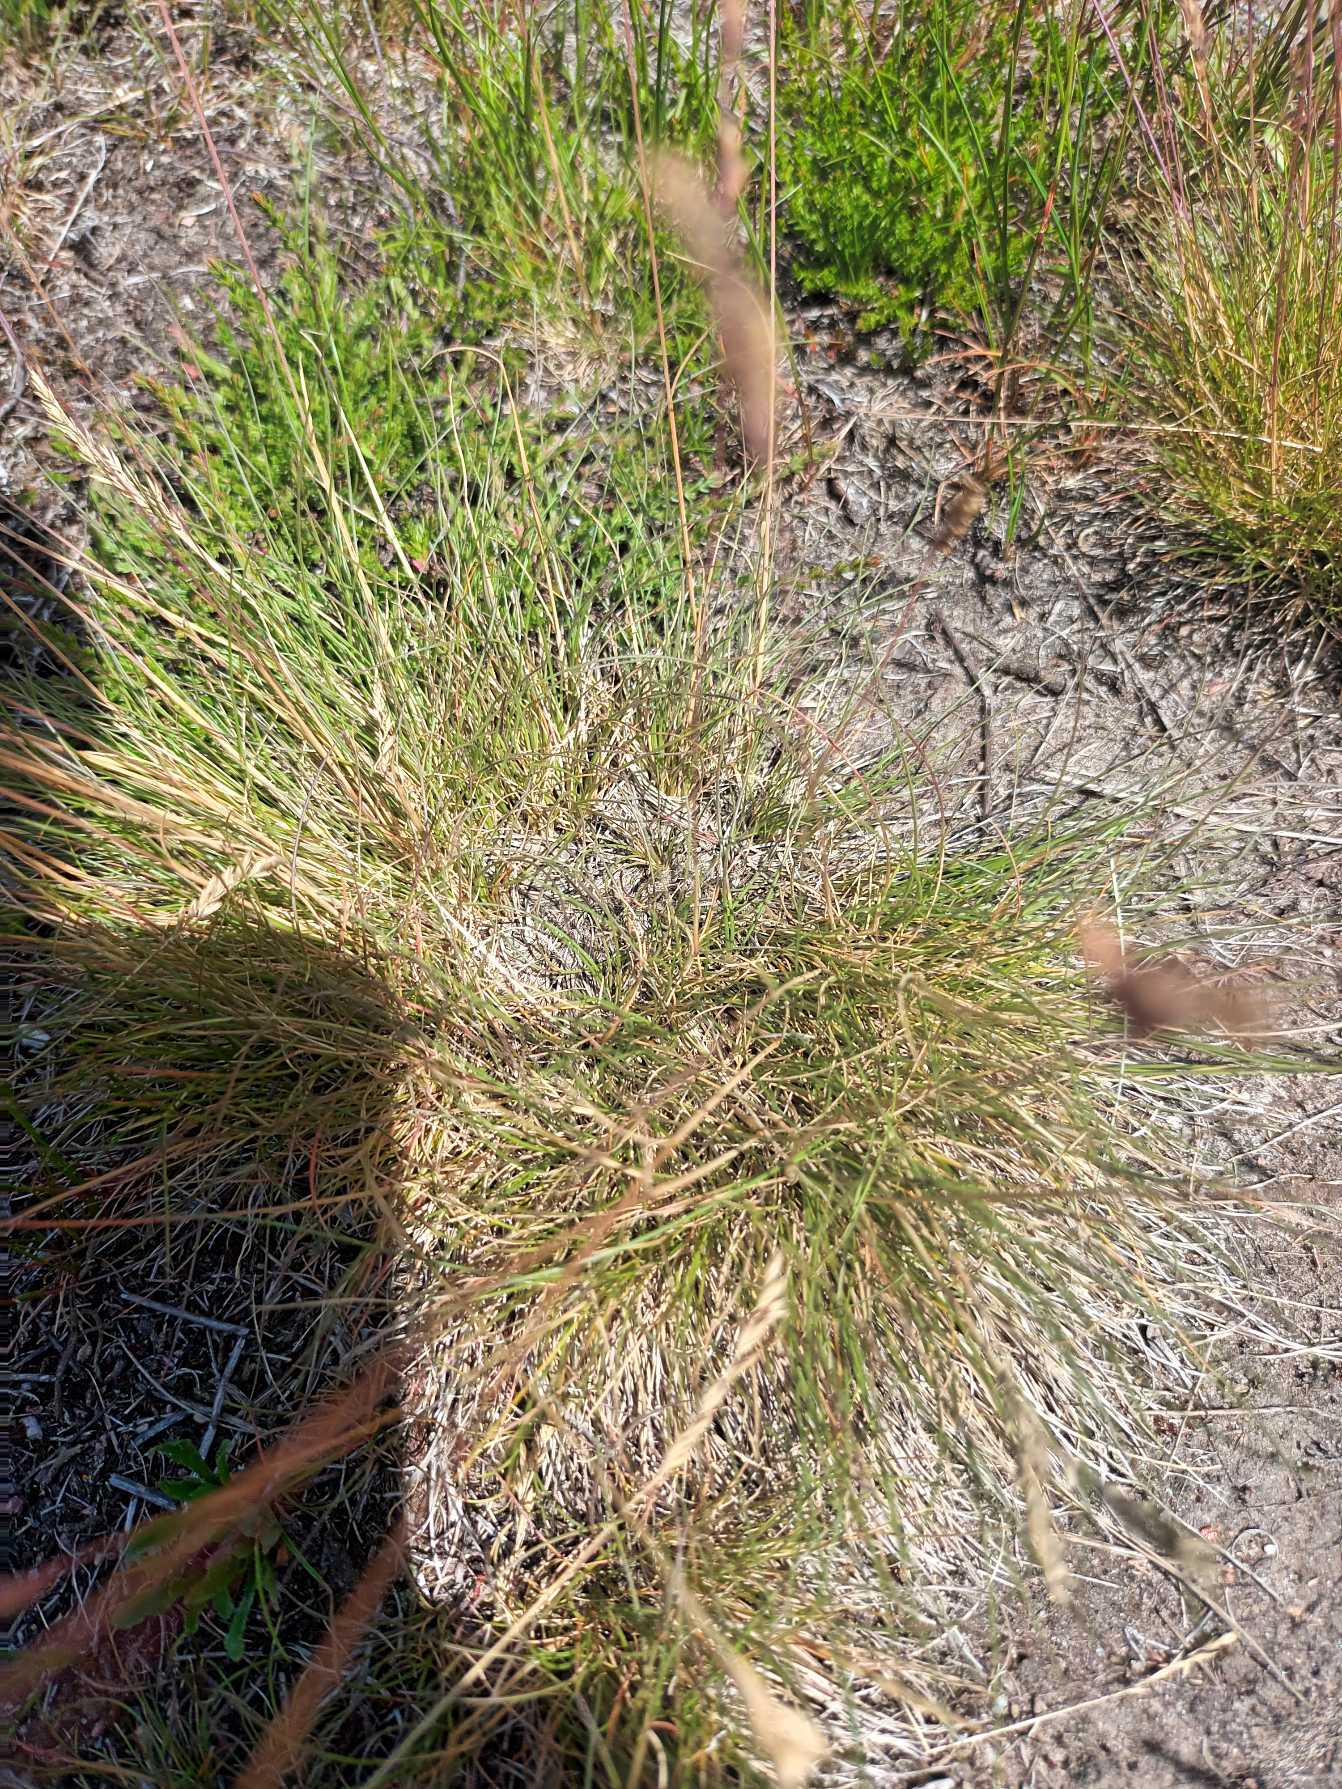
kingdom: Plantae
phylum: Tracheophyta
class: Liliopsida
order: Poales
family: Poaceae
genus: Festuca
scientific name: Festuca ovina
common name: Fåre-svingel
